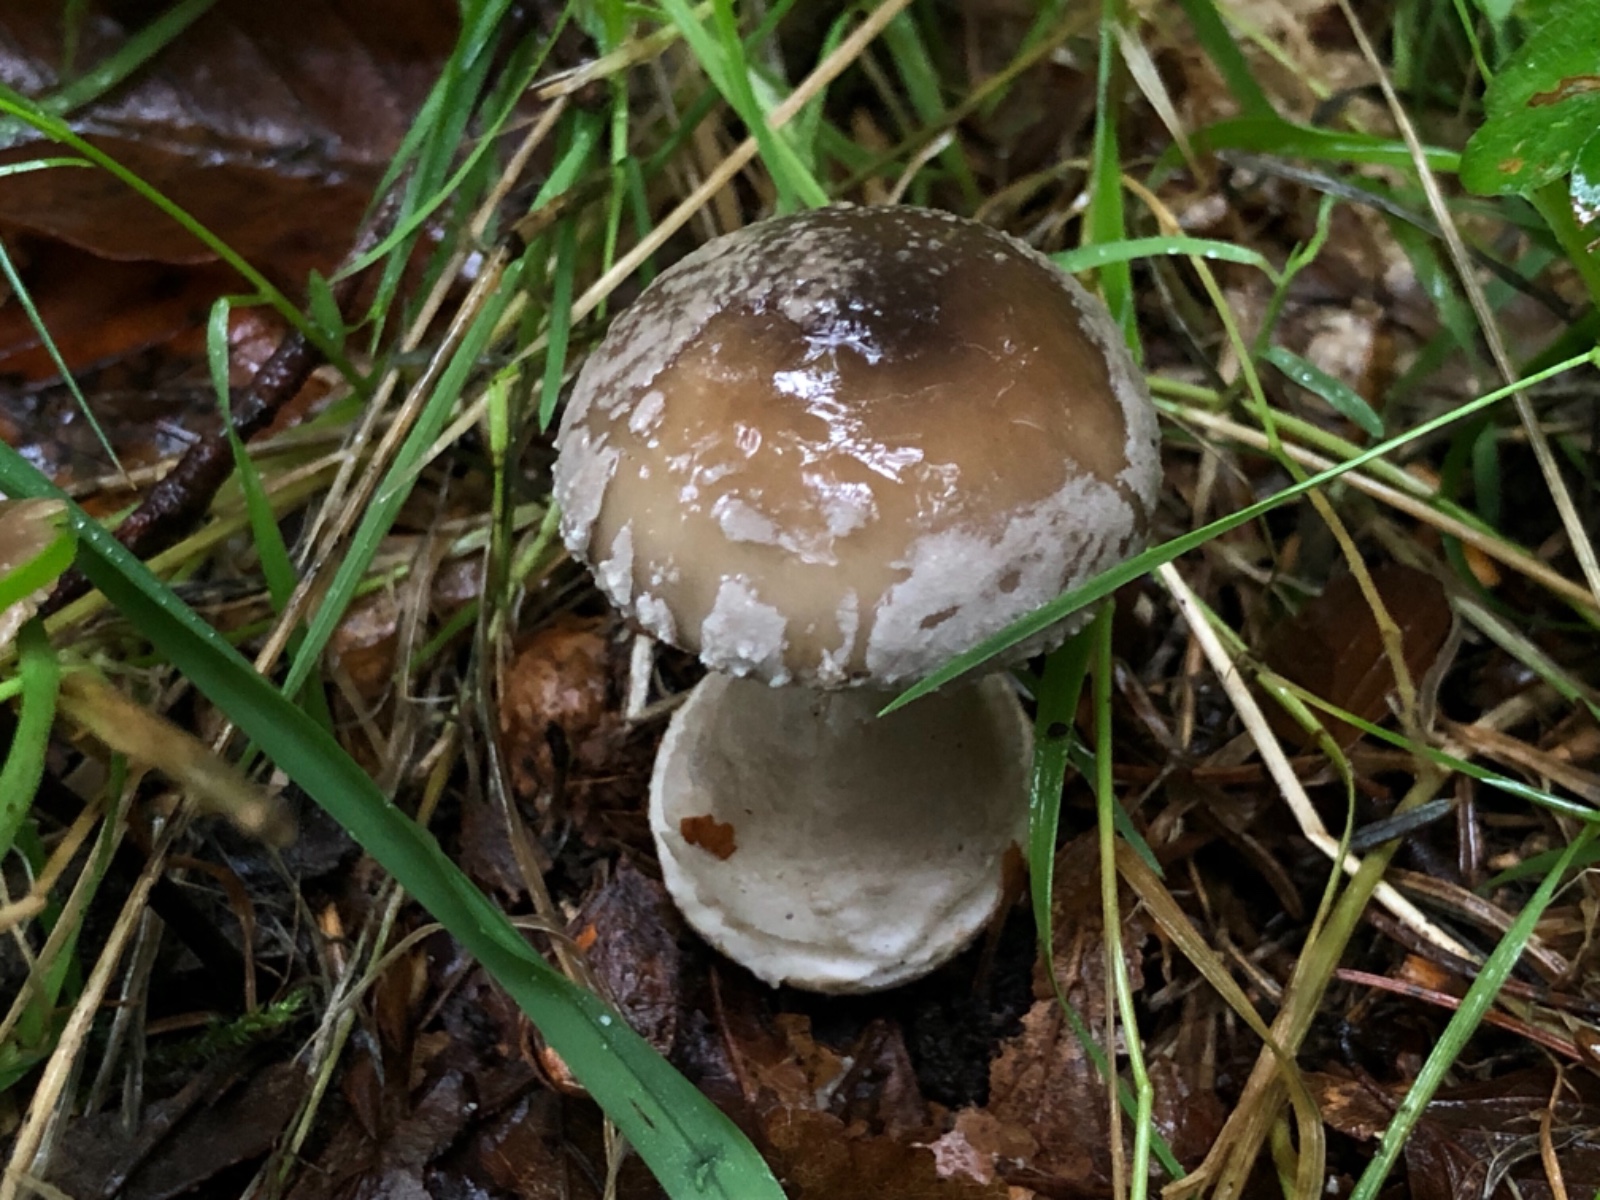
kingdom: Fungi
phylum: Basidiomycota
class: Agaricomycetes
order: Agaricales
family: Amanitaceae
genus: Amanita
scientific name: Amanita
